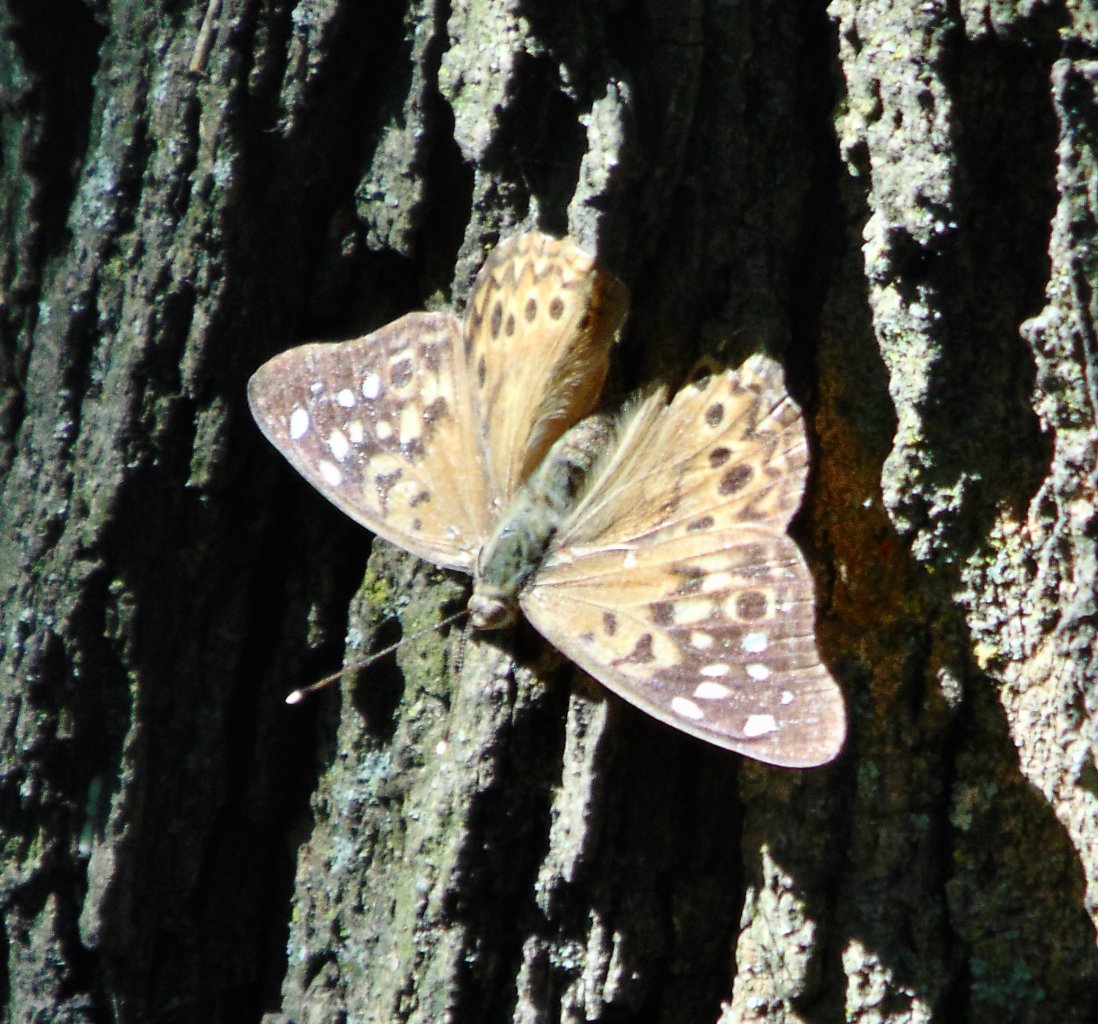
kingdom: Animalia
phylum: Arthropoda
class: Insecta
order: Lepidoptera
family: Nymphalidae
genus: Asterocampa
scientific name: Asterocampa celtis
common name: Hackberry Emperor
